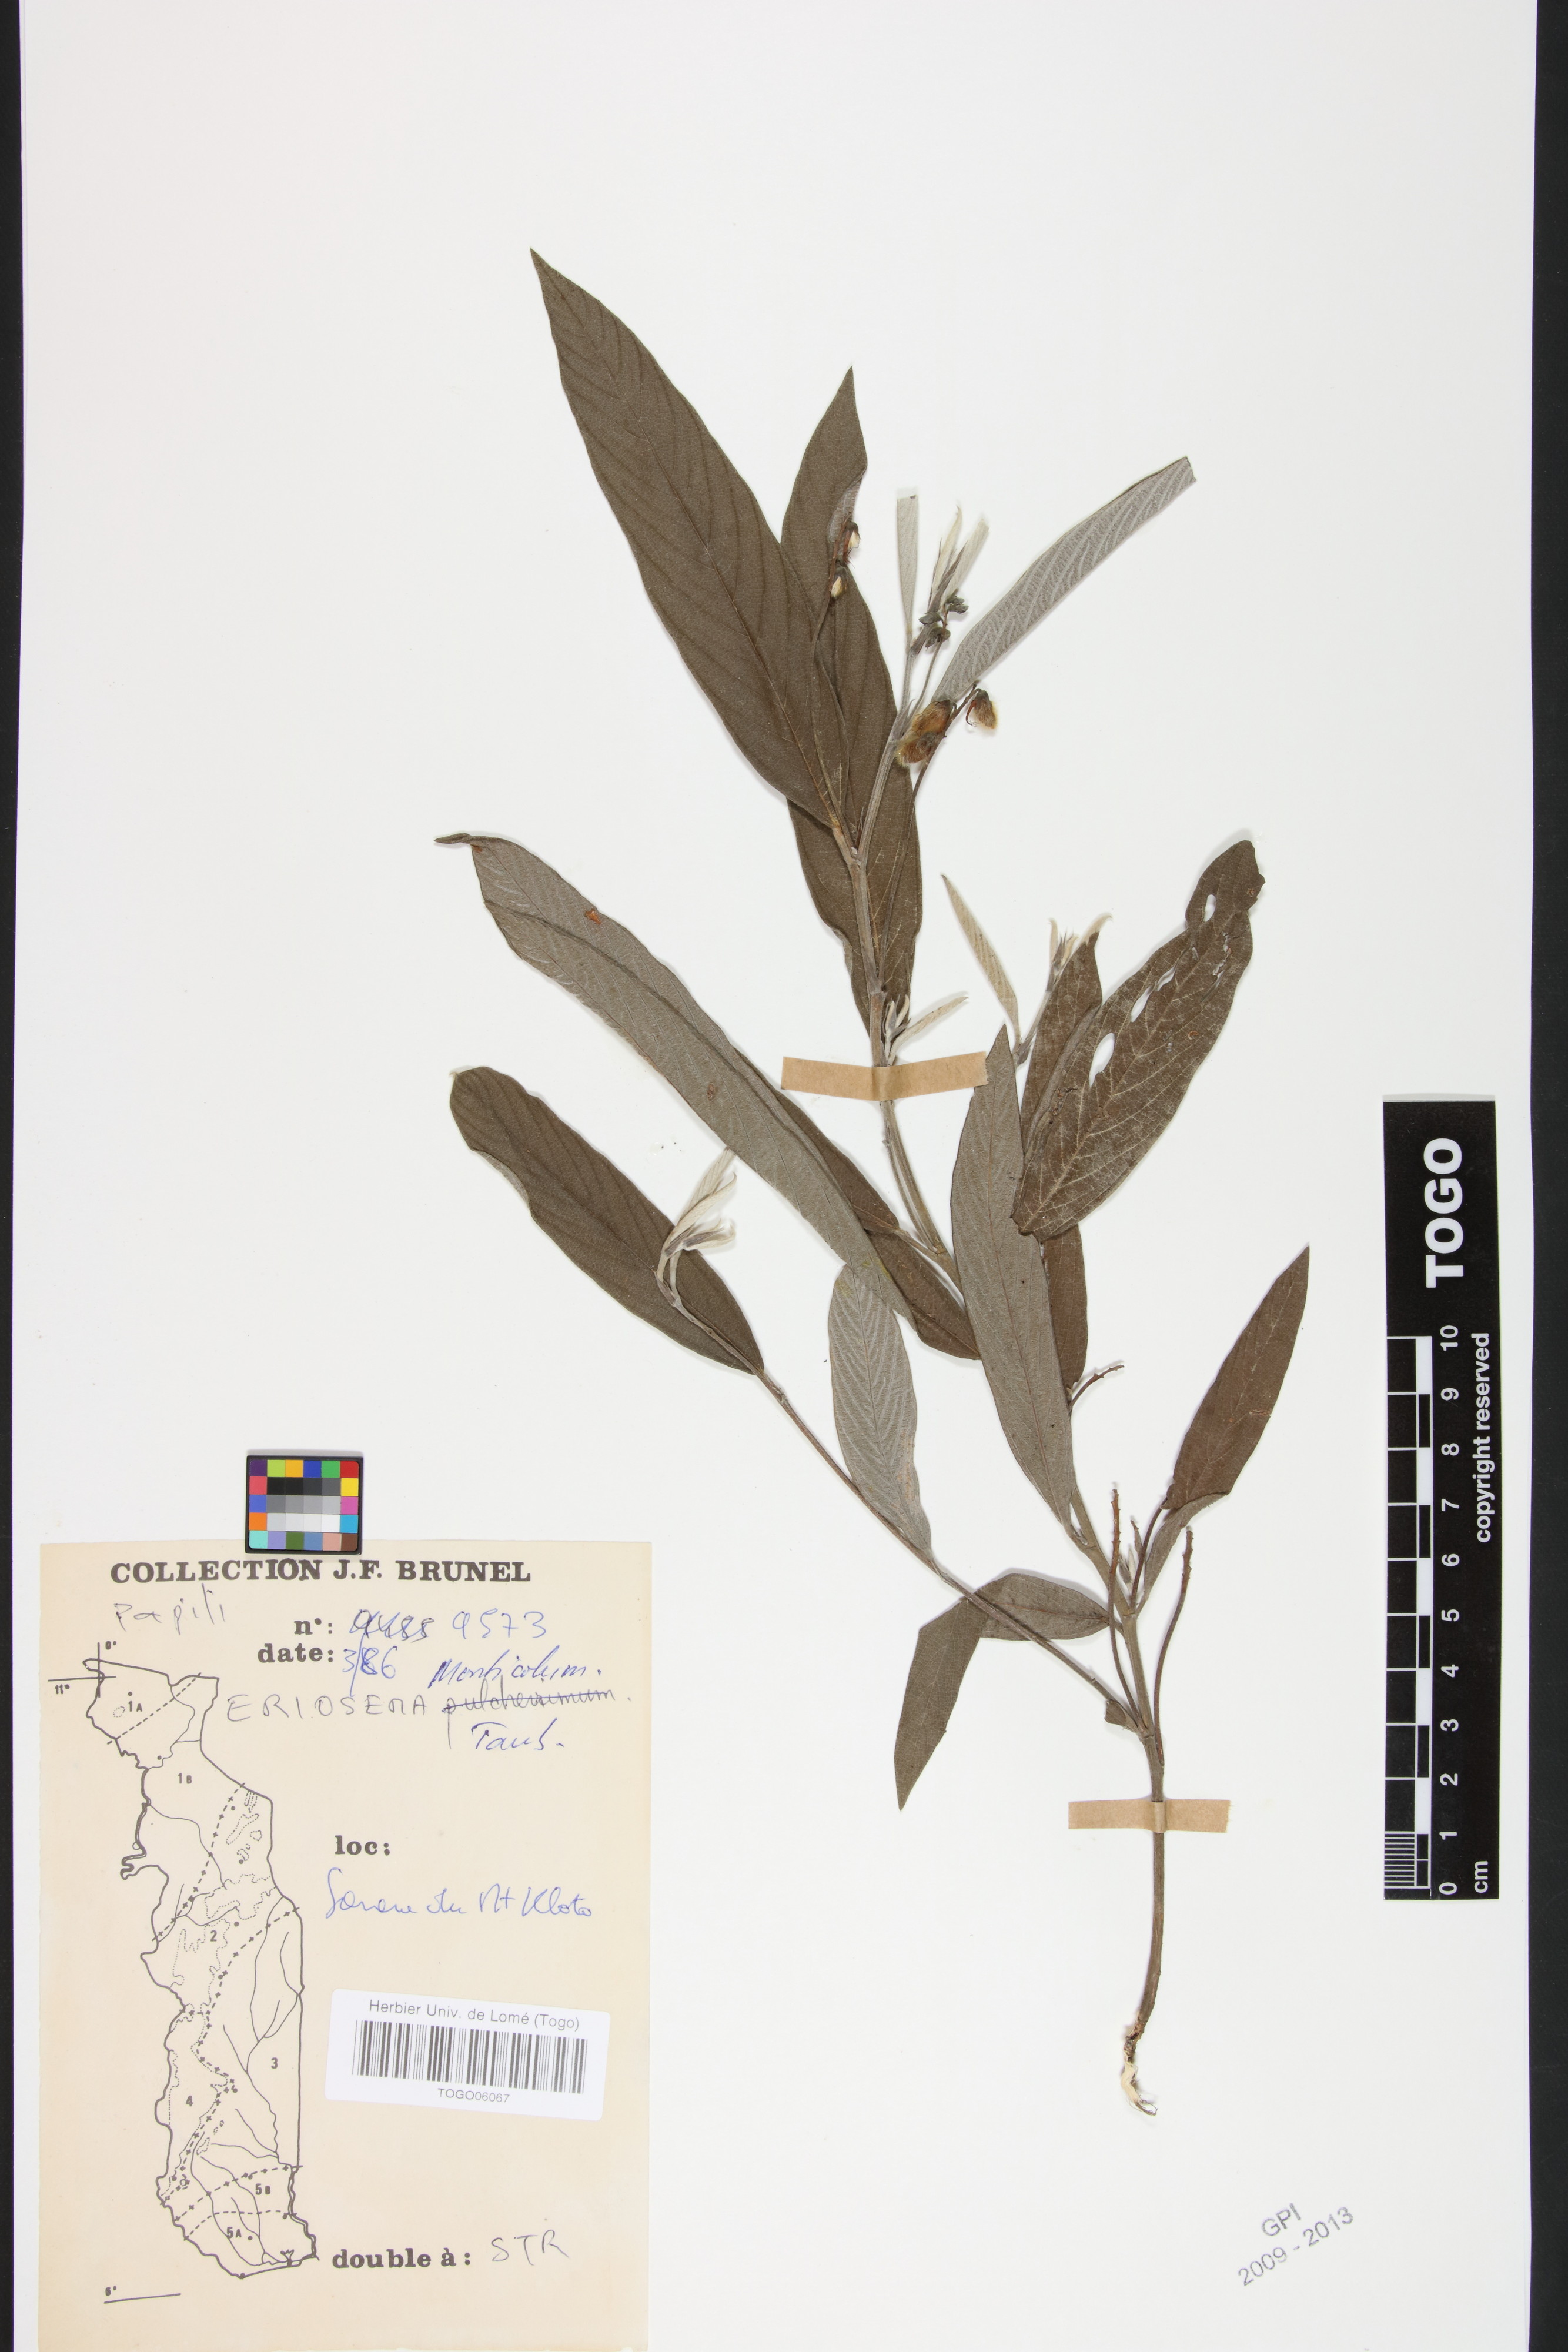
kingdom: Plantae
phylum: Tracheophyta
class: Magnoliopsida
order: Fabales
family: Fabaceae
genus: Eriosema
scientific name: Eriosema monticola
